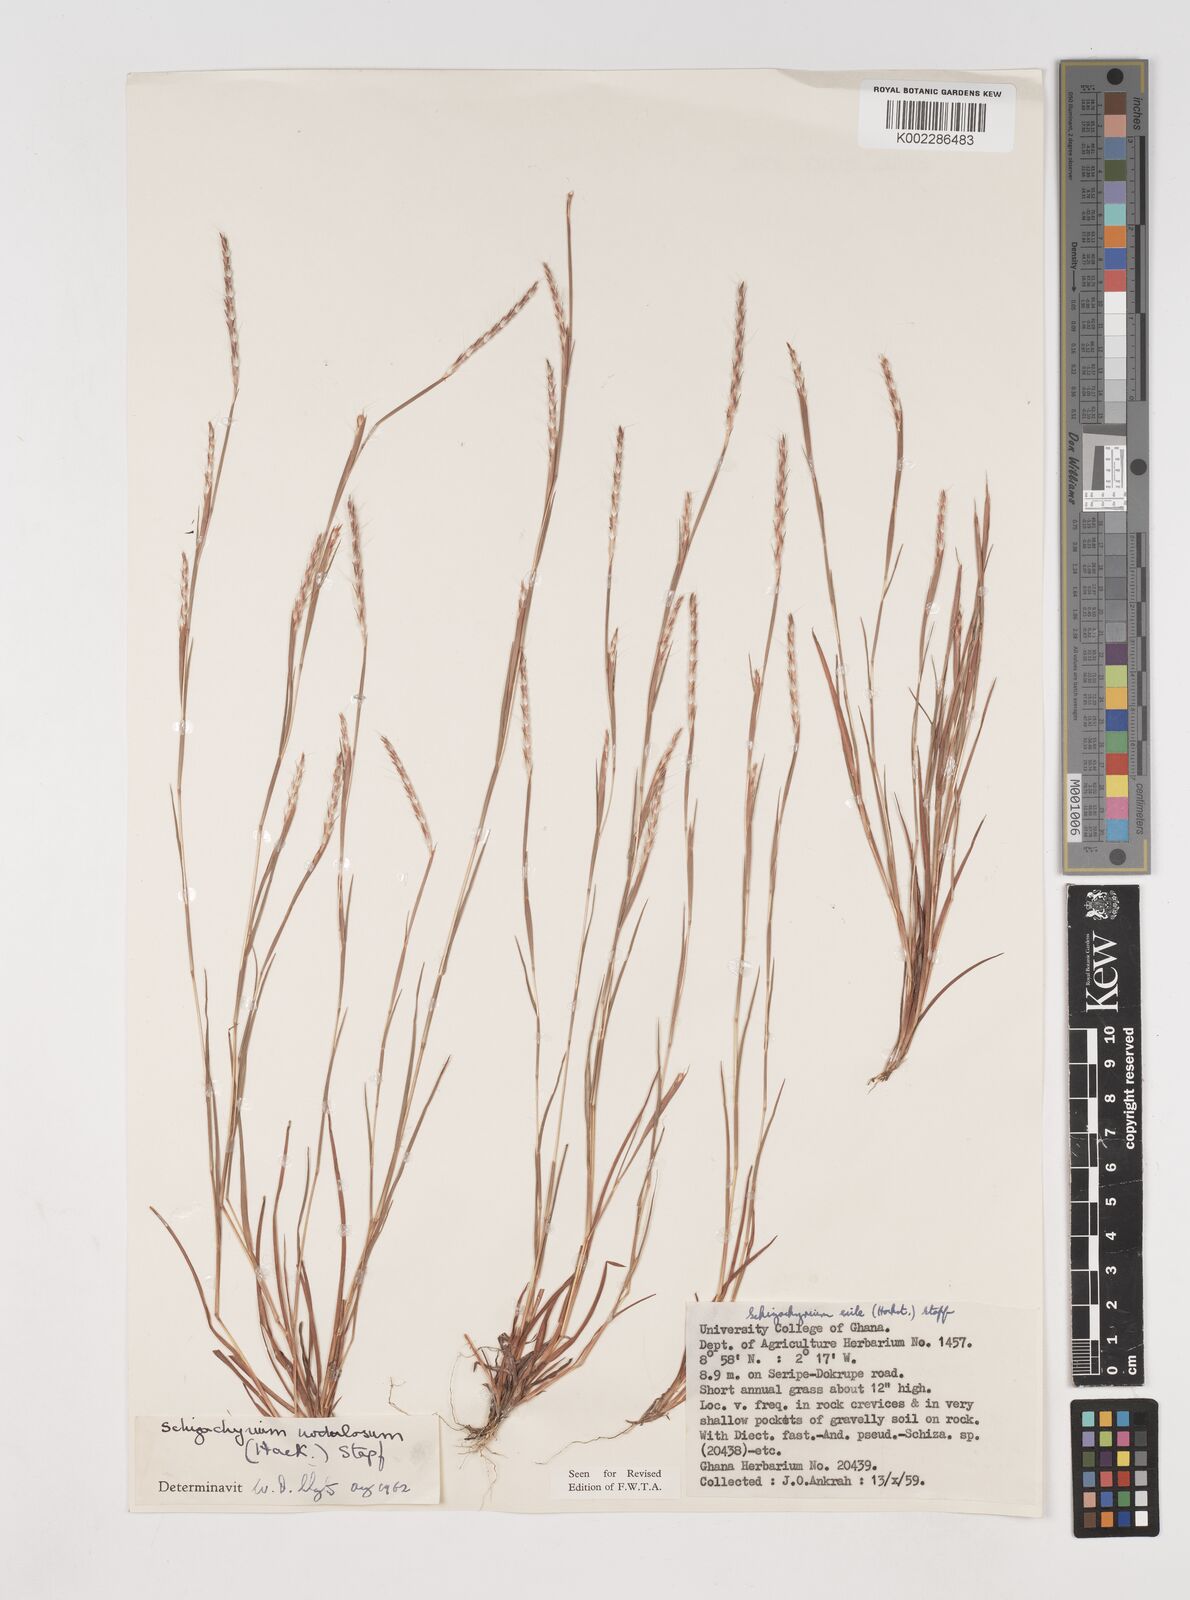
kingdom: Plantae
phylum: Tracheophyta
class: Liliopsida
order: Poales
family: Poaceae
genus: Schizachyrium
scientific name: Schizachyrium nodulosum
